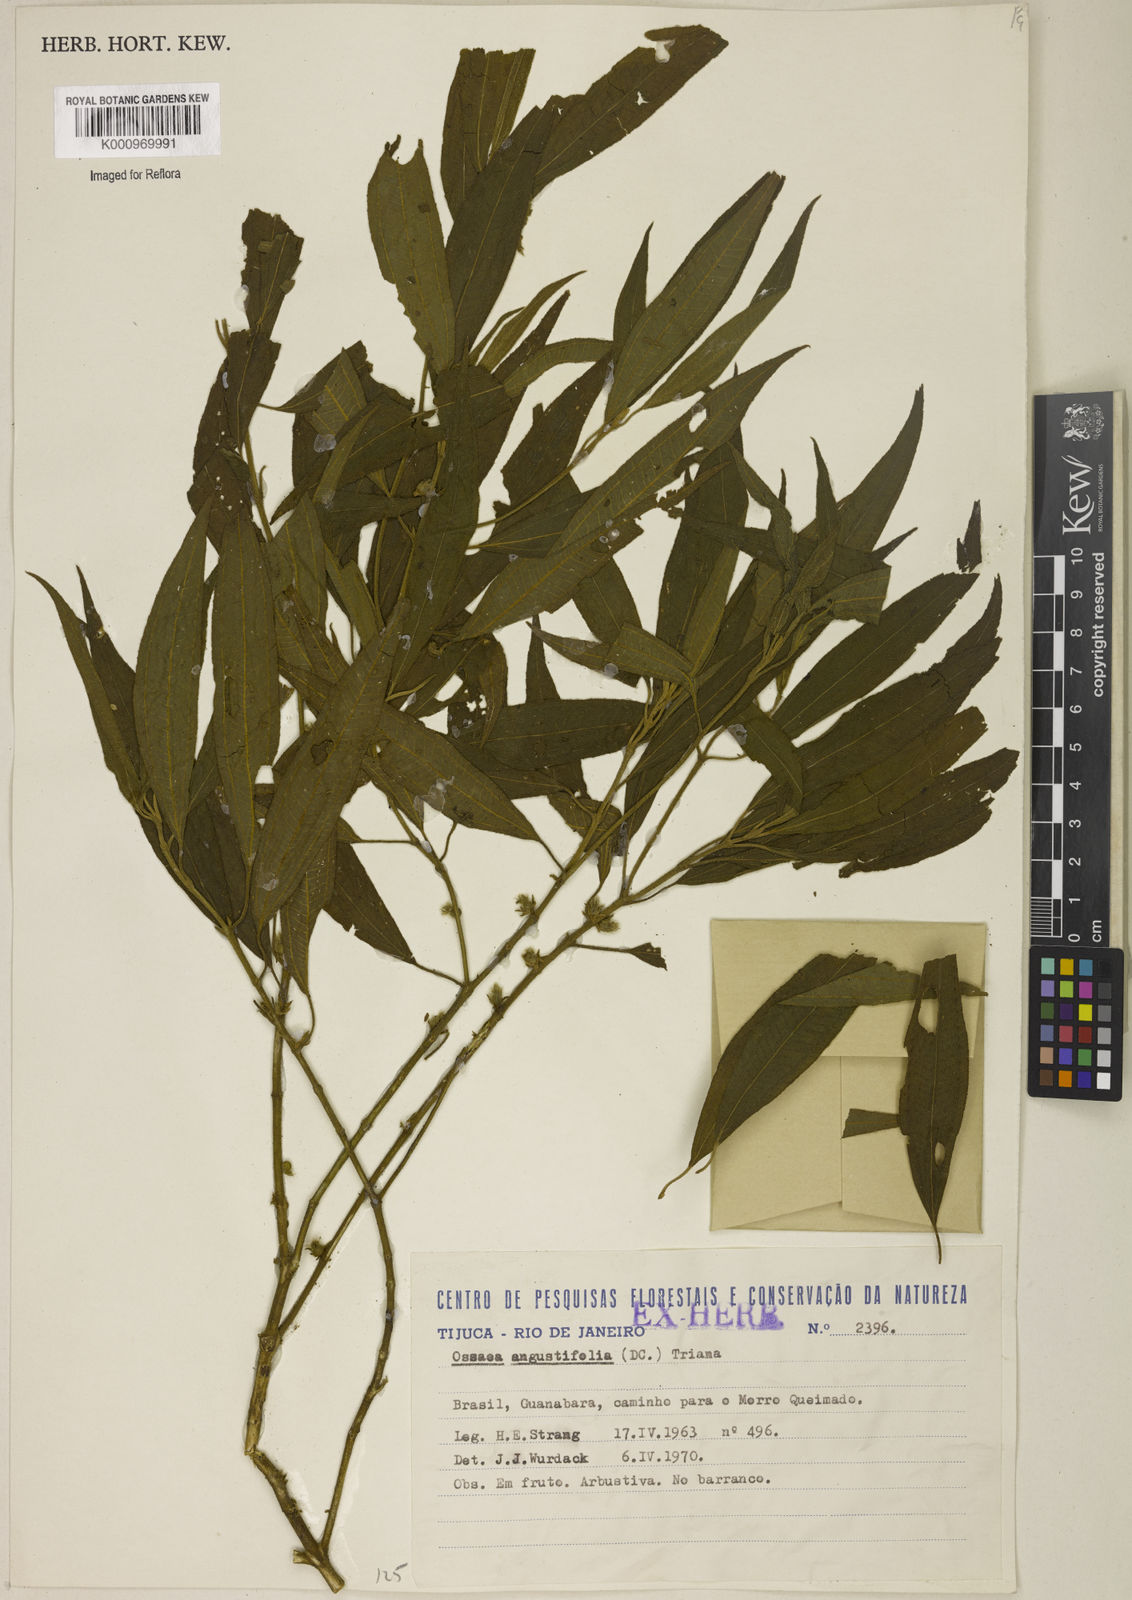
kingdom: Plantae
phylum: Tracheophyta
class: Magnoliopsida
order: Myrtales
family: Melastomataceae
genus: Miconia
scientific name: Miconia corcovadensis
